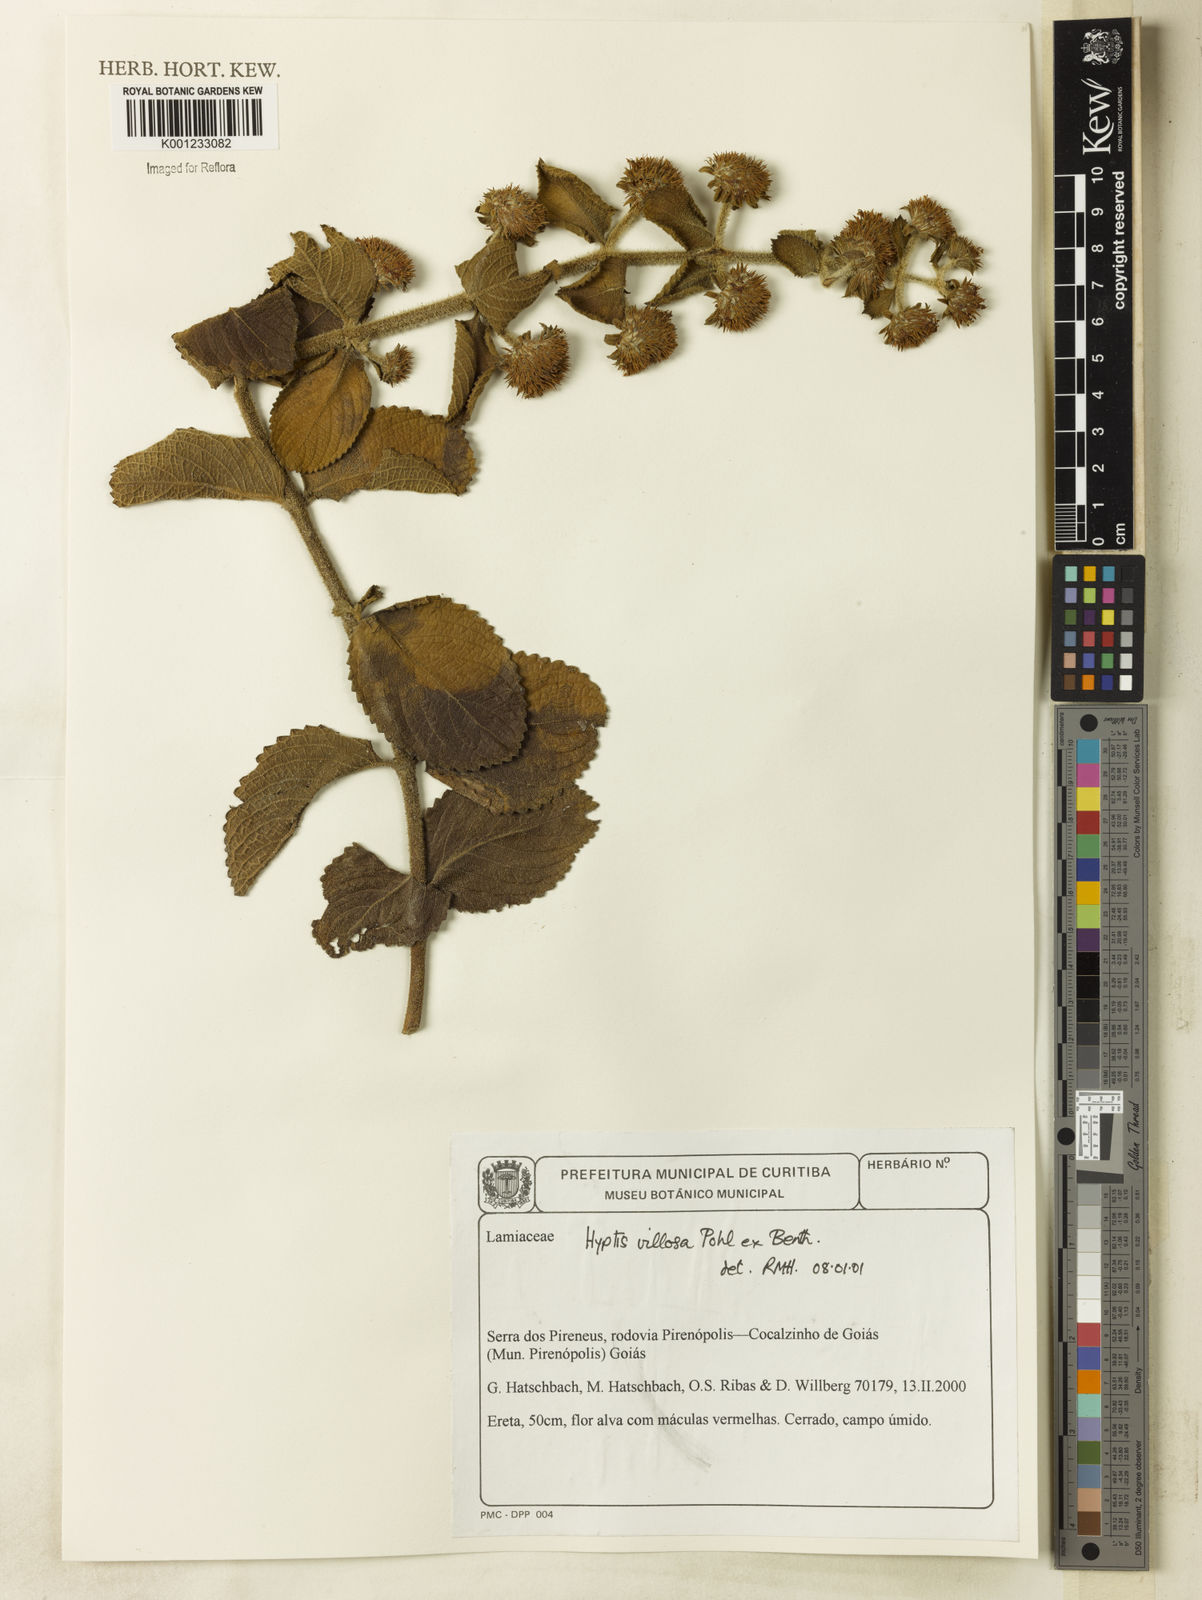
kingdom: Plantae
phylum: Tracheophyta
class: Magnoliopsida
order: Lamiales
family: Lamiaceae
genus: Hyptis
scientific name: Hyptis villosa
